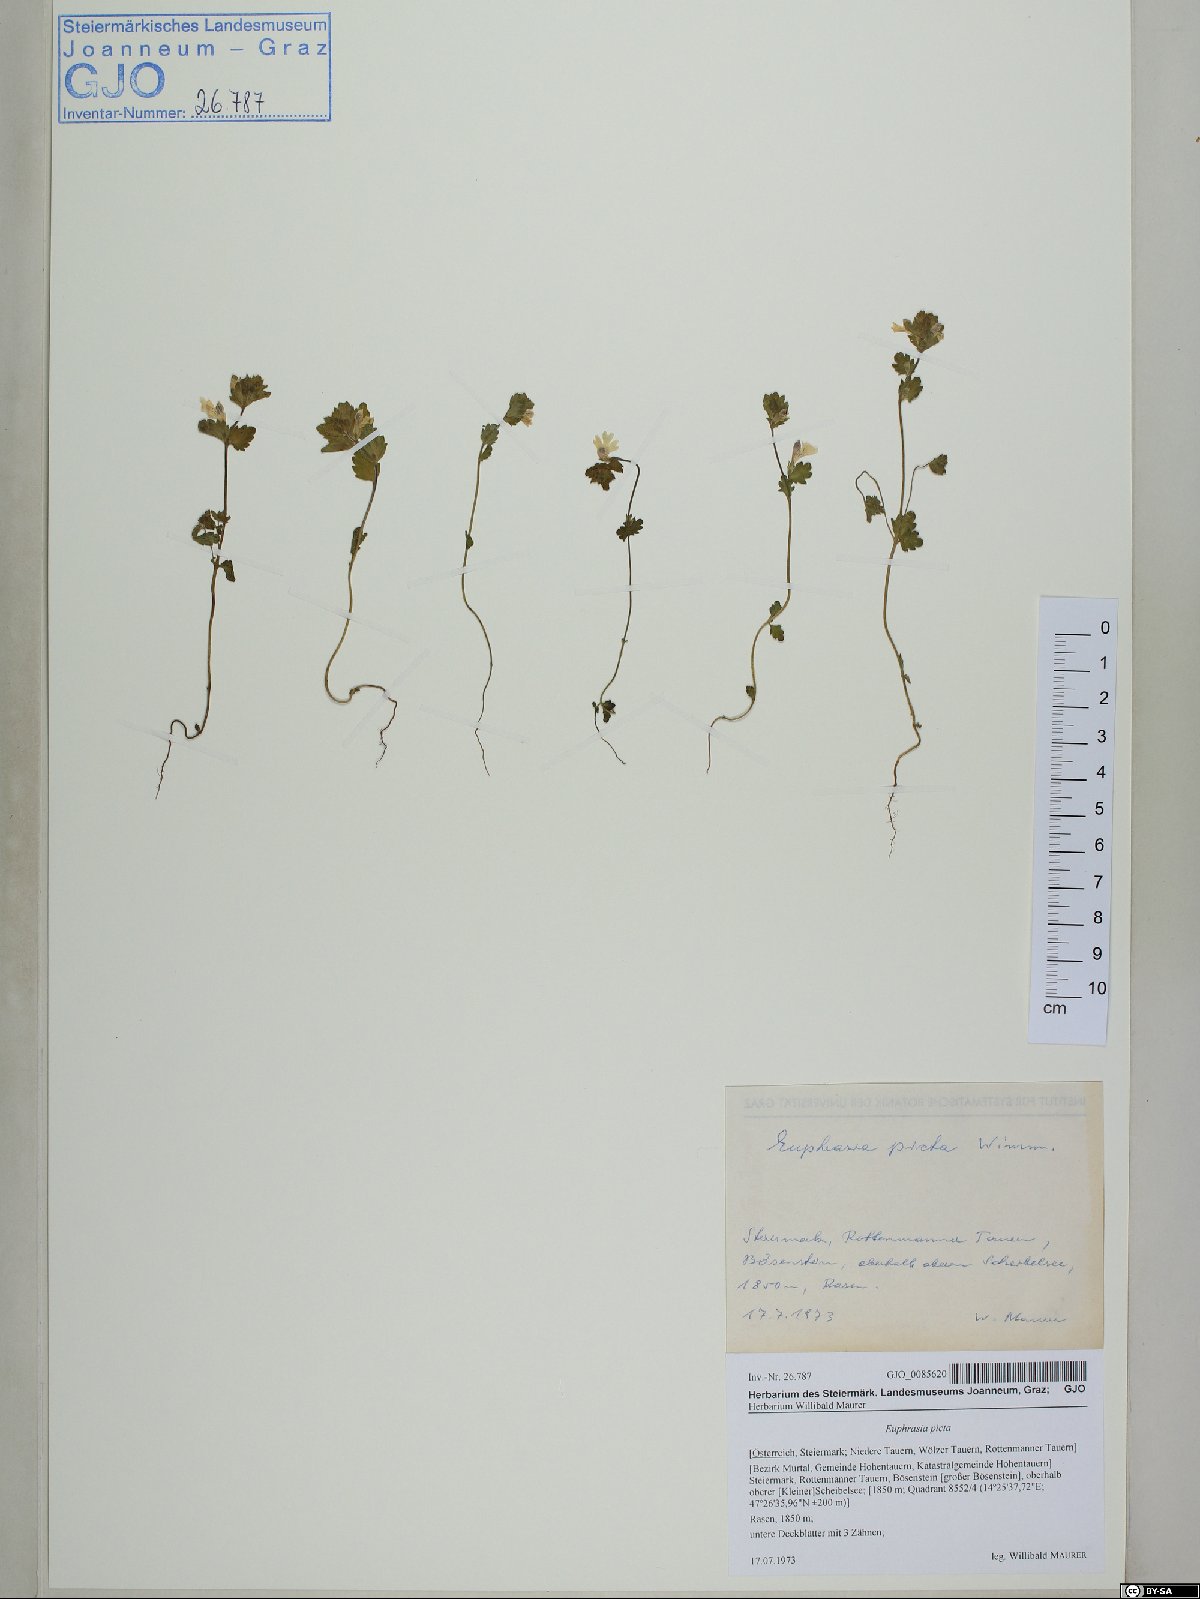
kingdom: Plantae
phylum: Tracheophyta
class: Magnoliopsida
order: Lamiales
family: Orobanchaceae
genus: Euphrasia
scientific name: Euphrasia picta
